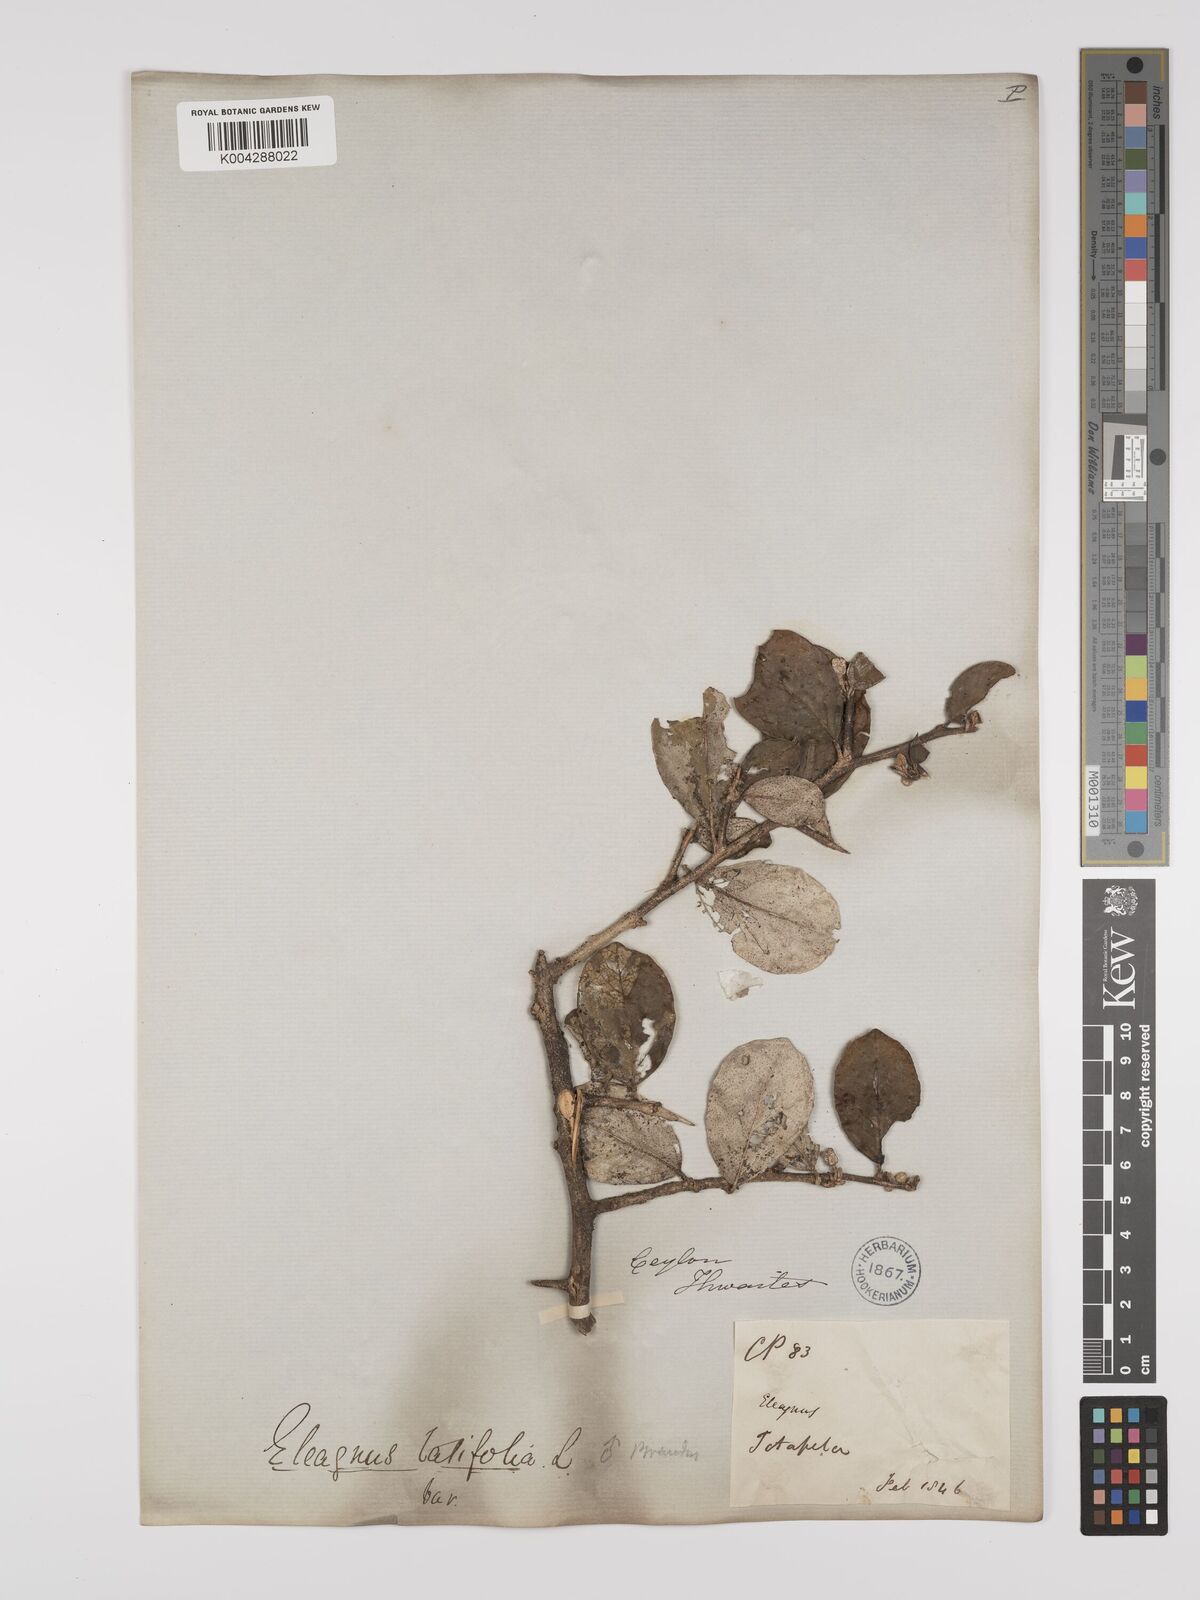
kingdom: Plantae
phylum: Tracheophyta
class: Magnoliopsida
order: Rosales
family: Elaeagnaceae
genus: Elaeagnus
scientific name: Elaeagnus latifolia
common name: Oleaster
